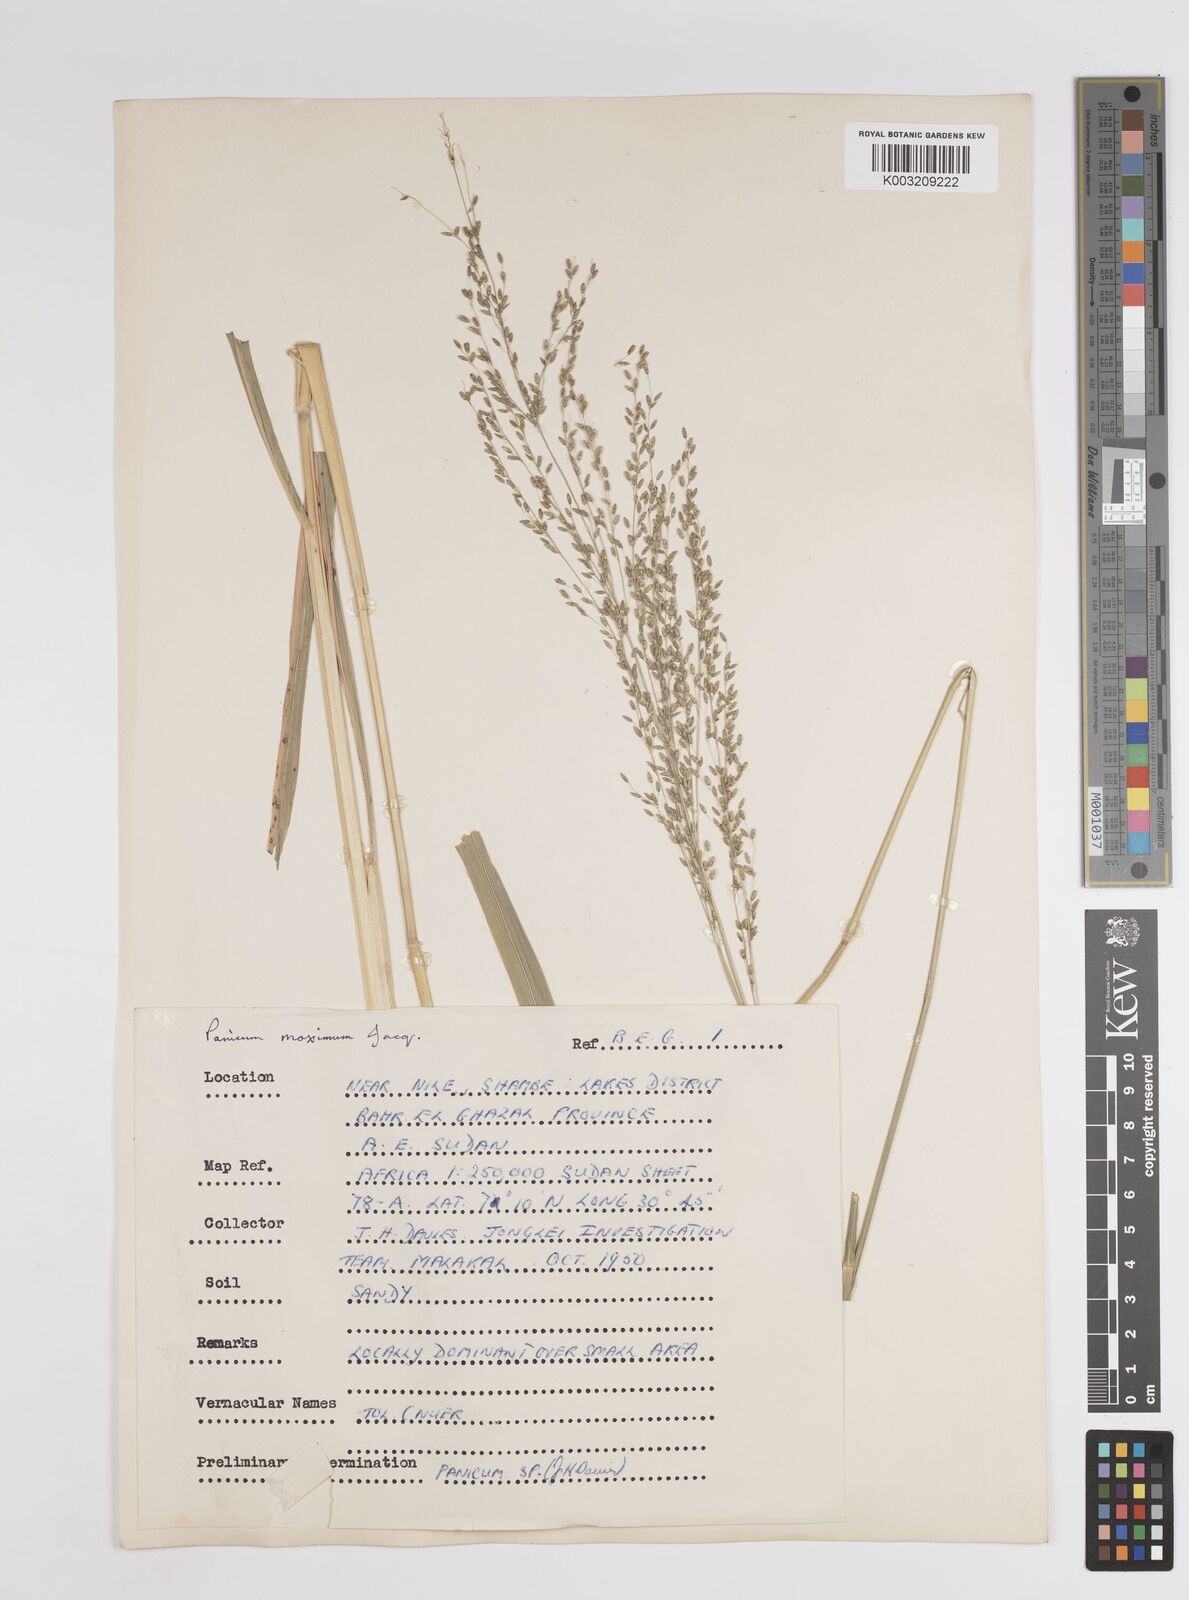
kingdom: Plantae
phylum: Tracheophyta
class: Liliopsida
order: Poales
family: Poaceae
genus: Megathyrsus
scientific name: Megathyrsus maximus
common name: Guineagrass
